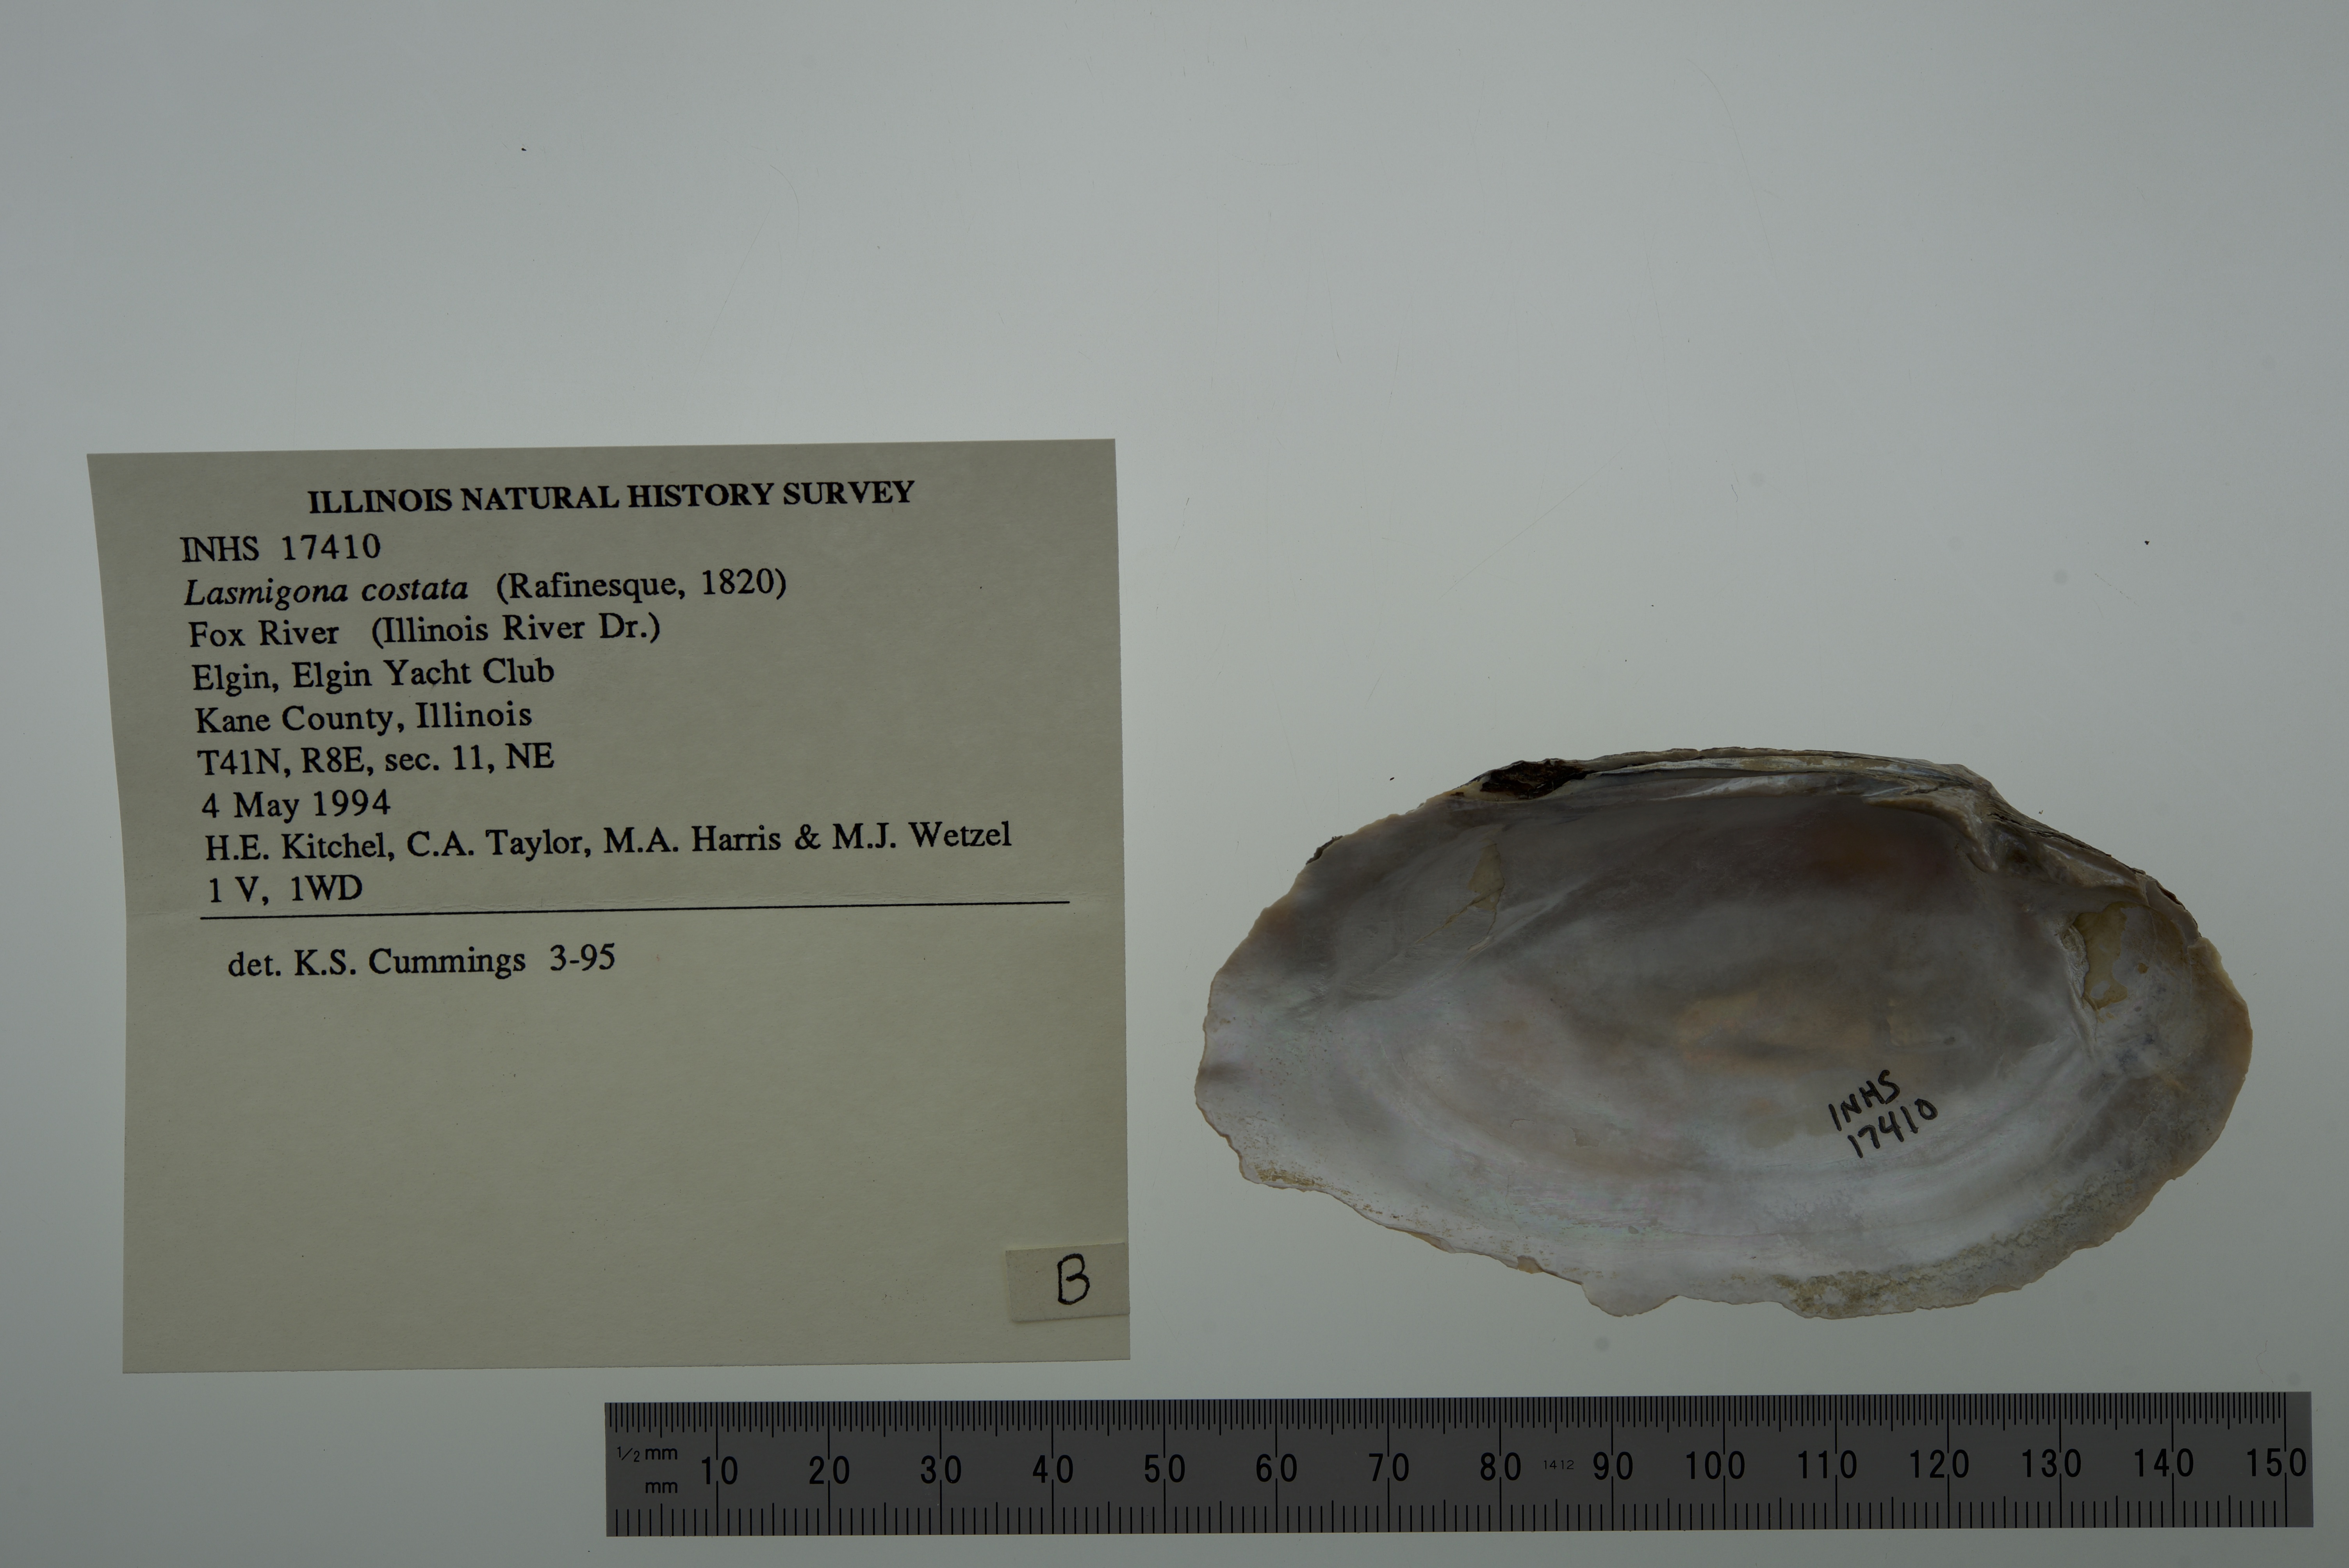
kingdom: Animalia
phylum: Mollusca
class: Bivalvia
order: Unionida
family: Unionidae
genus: Lasmigona
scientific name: Lasmigona costata
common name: Flutedshell
